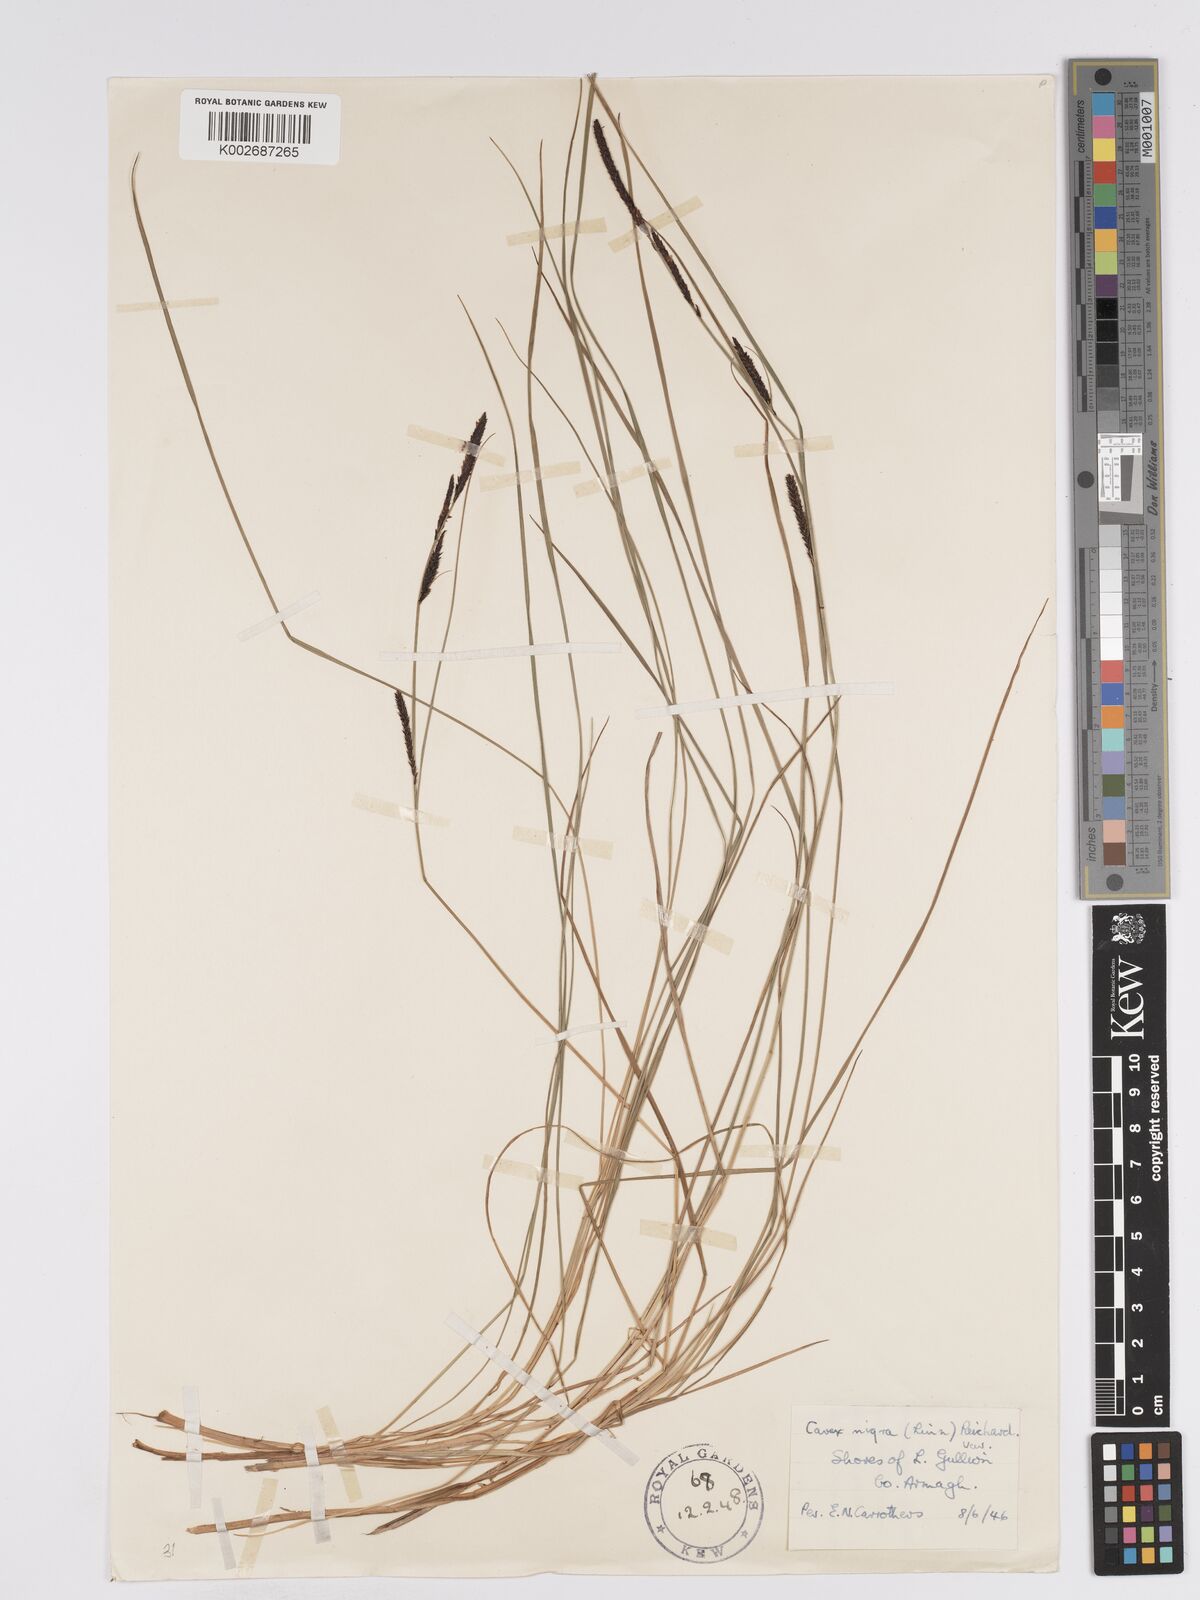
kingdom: Plantae
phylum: Tracheophyta
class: Liliopsida
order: Poales
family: Cyperaceae
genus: Carex
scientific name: Carex nigra
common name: Common sedge
